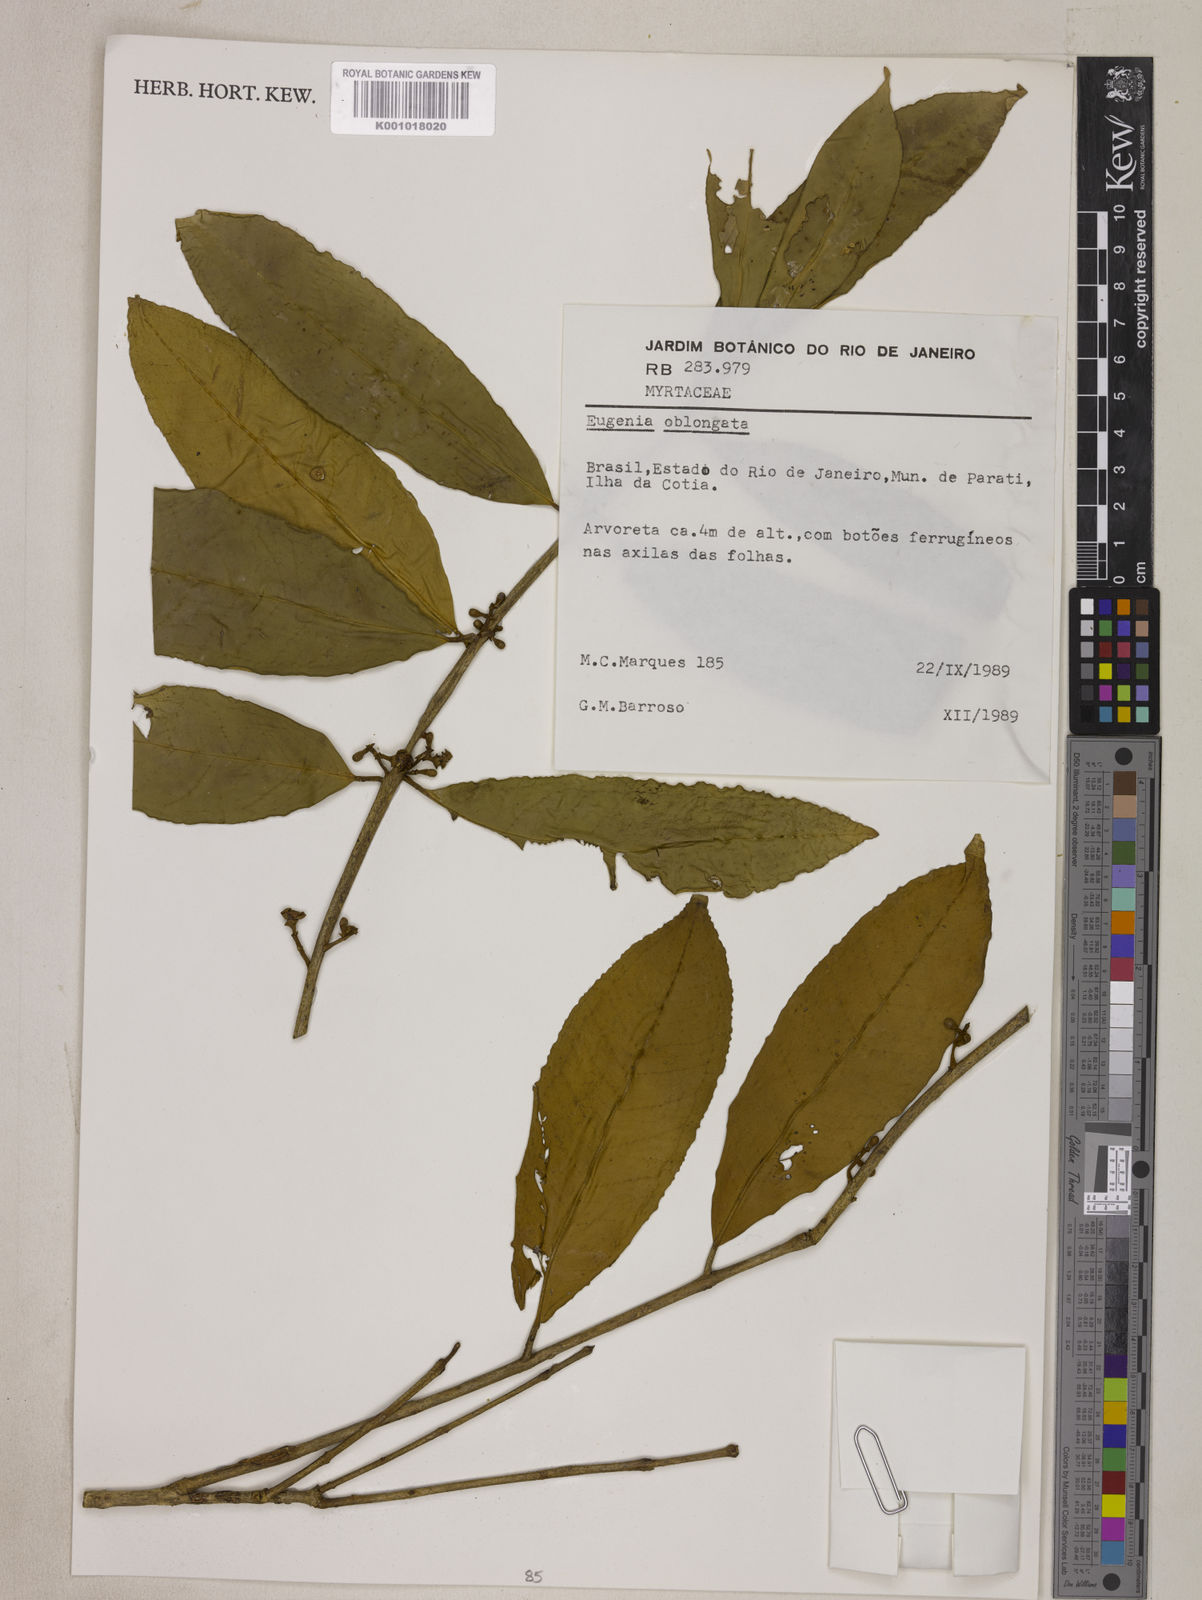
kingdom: Plantae
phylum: Tracheophyta
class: Magnoliopsida
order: Myrtales
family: Myrtaceae
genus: Eugenia
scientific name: Eugenia oblongata
